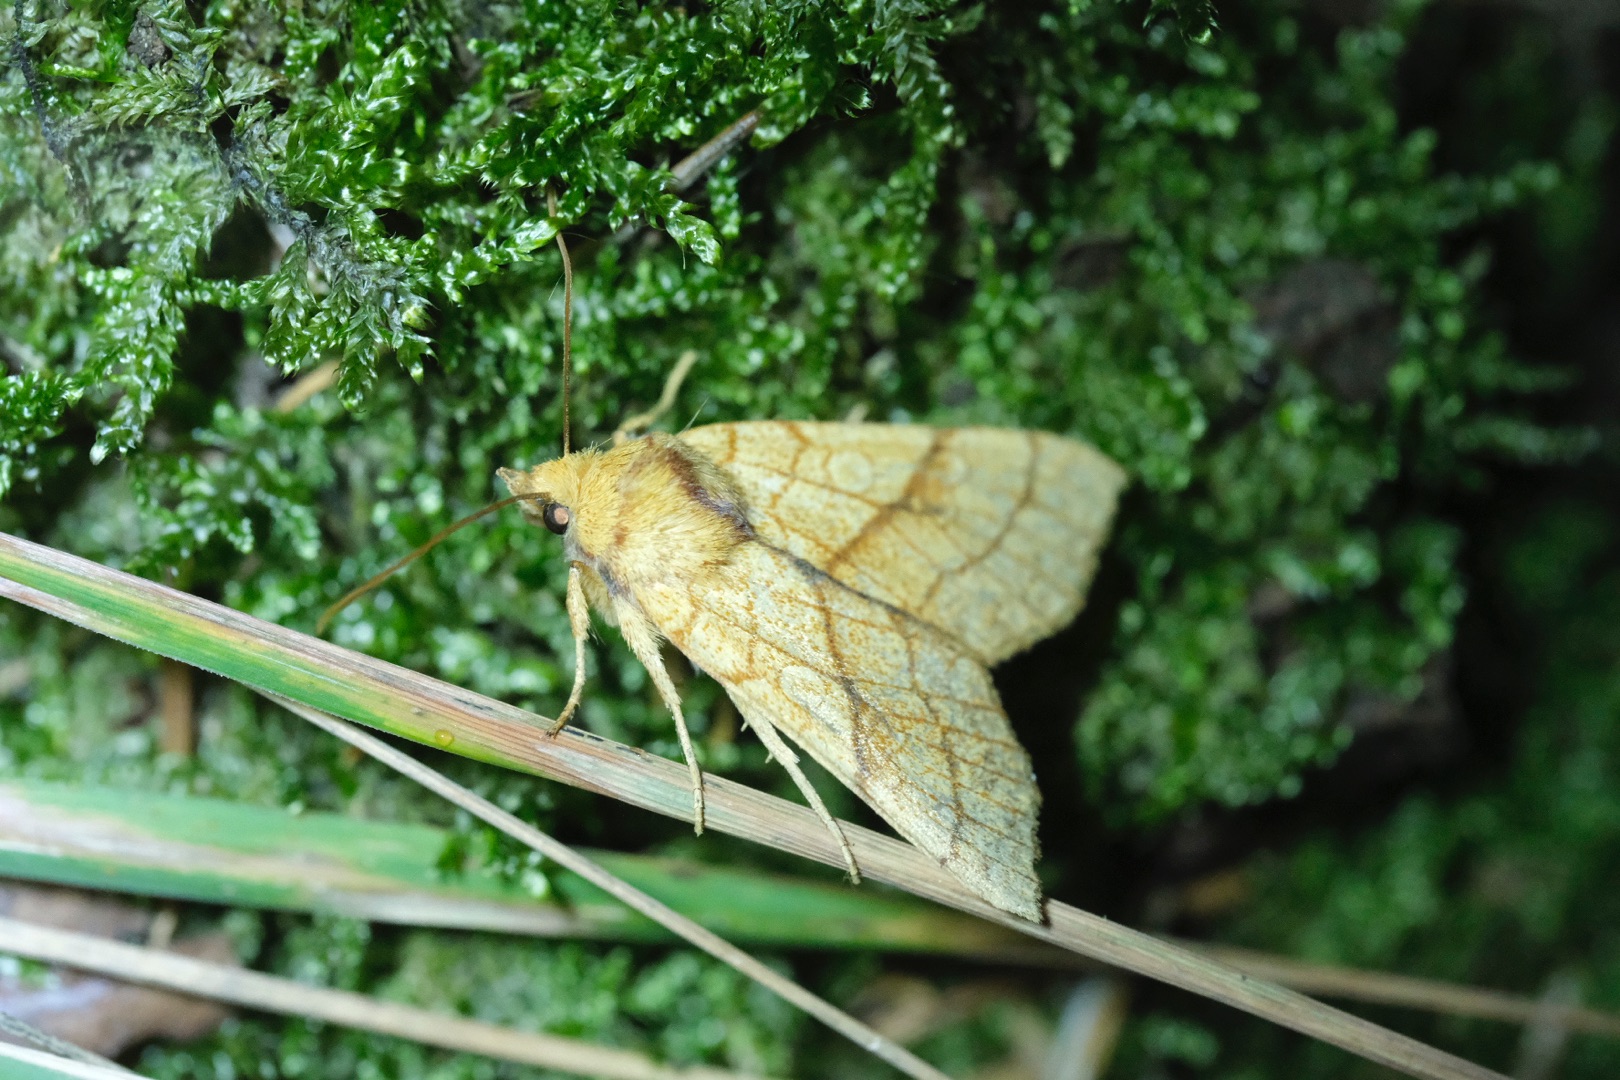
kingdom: Animalia
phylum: Arthropoda
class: Insecta
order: Lepidoptera
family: Noctuidae
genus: Tiliacea
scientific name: Tiliacea citrago
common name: Linde-septemberugle
